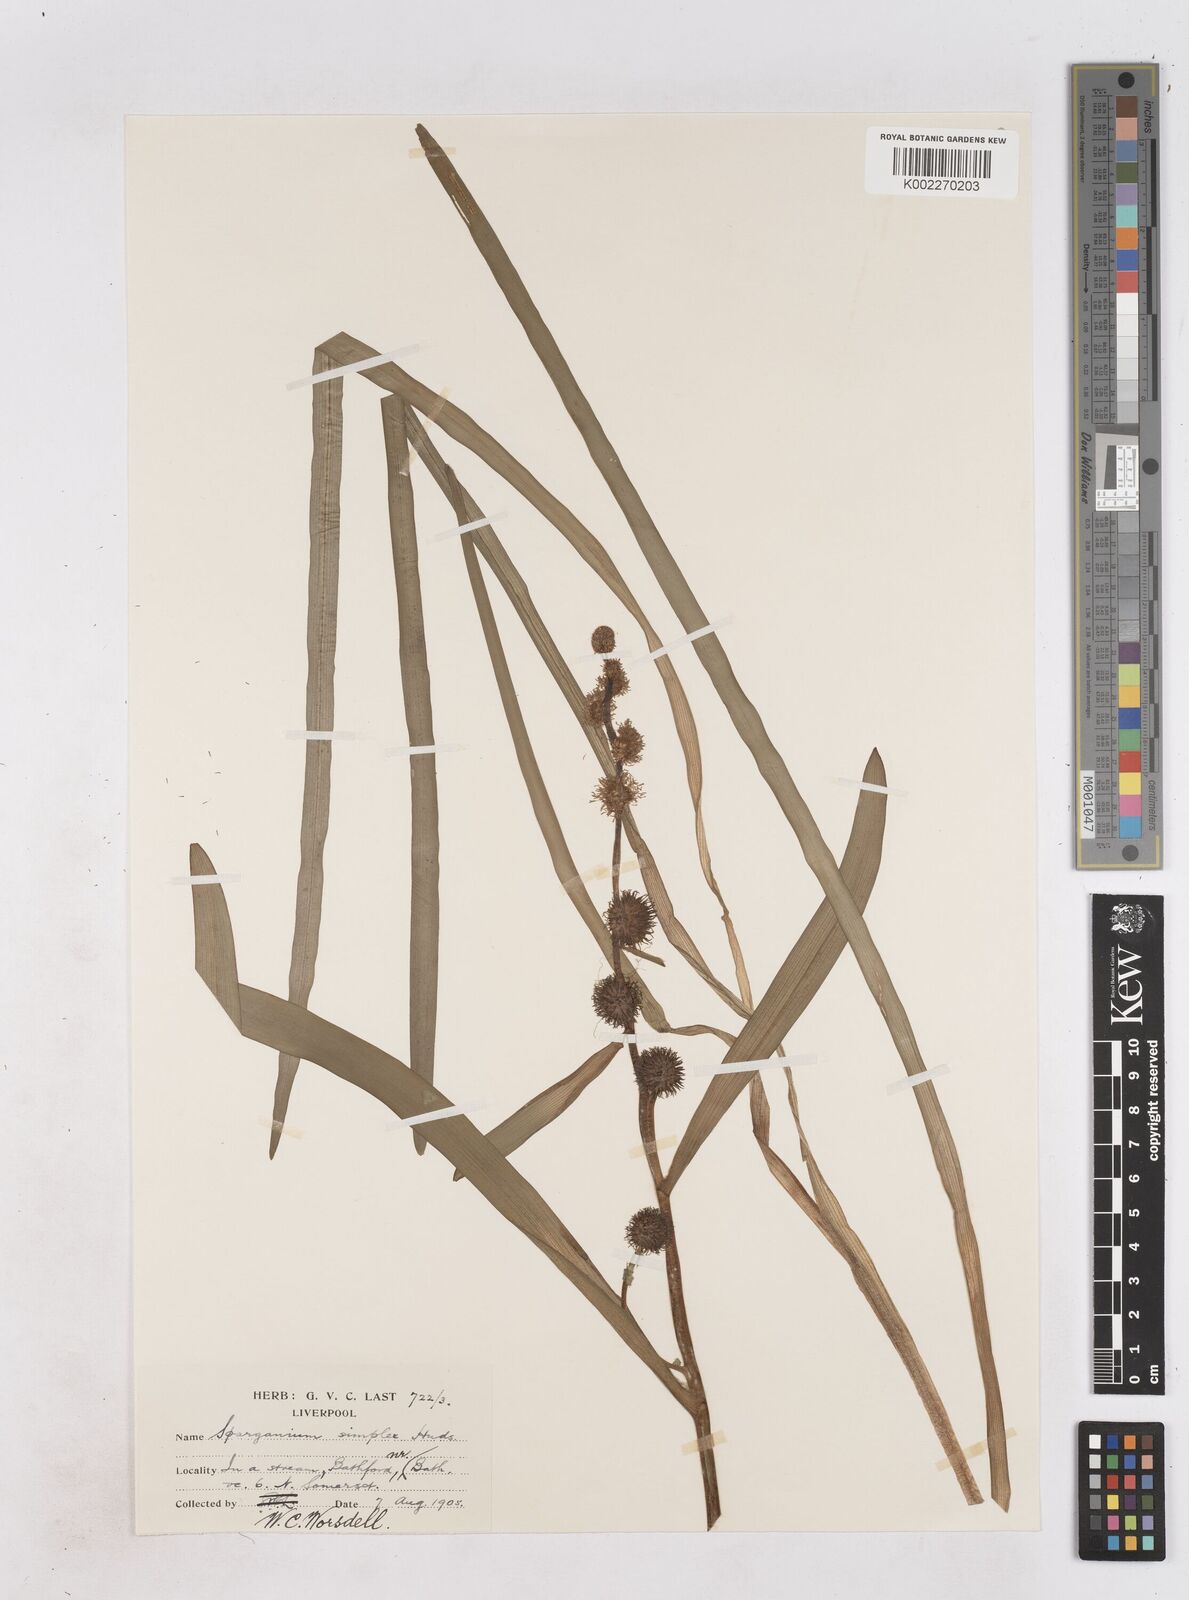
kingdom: Plantae
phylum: Tracheophyta
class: Liliopsida
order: Poales
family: Typhaceae
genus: Sparganium
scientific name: Sparganium emersum
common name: Unbranched bur-reed
